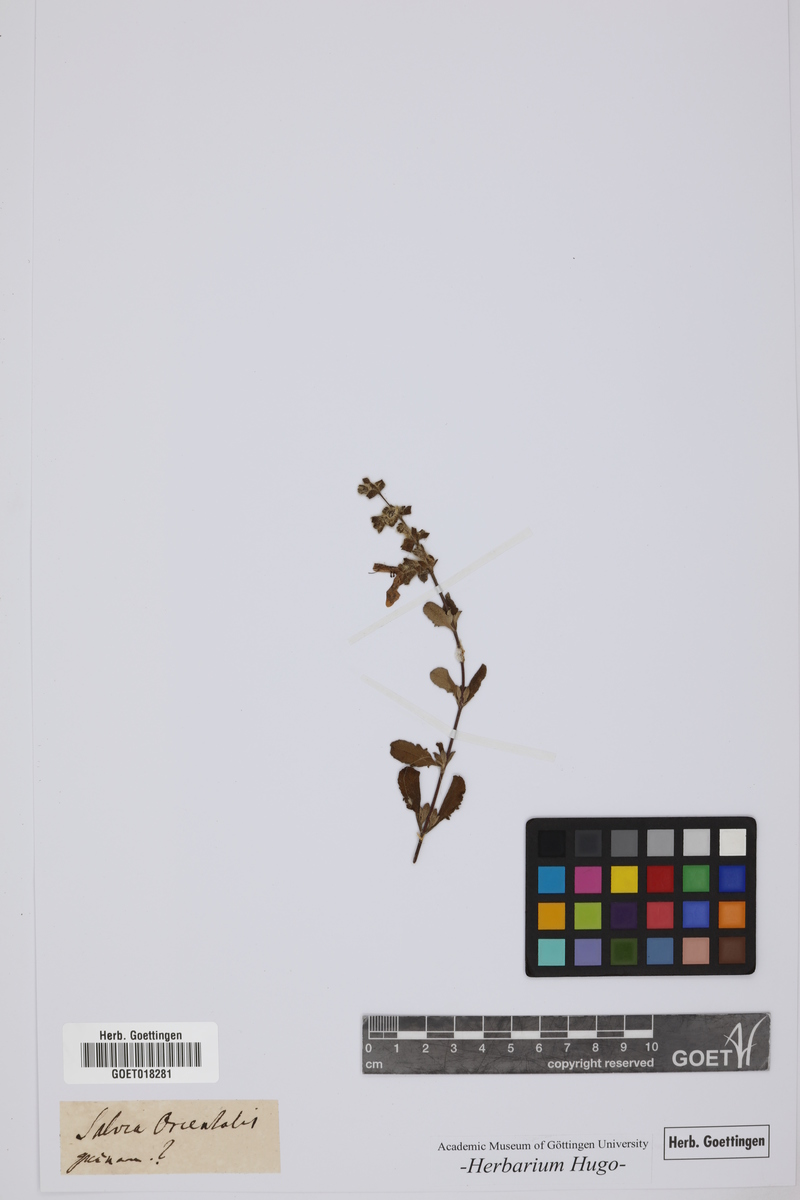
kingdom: Plantae
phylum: Tracheophyta
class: Magnoliopsida
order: Lamiales
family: Lamiaceae
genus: Salvia
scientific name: Salvia
